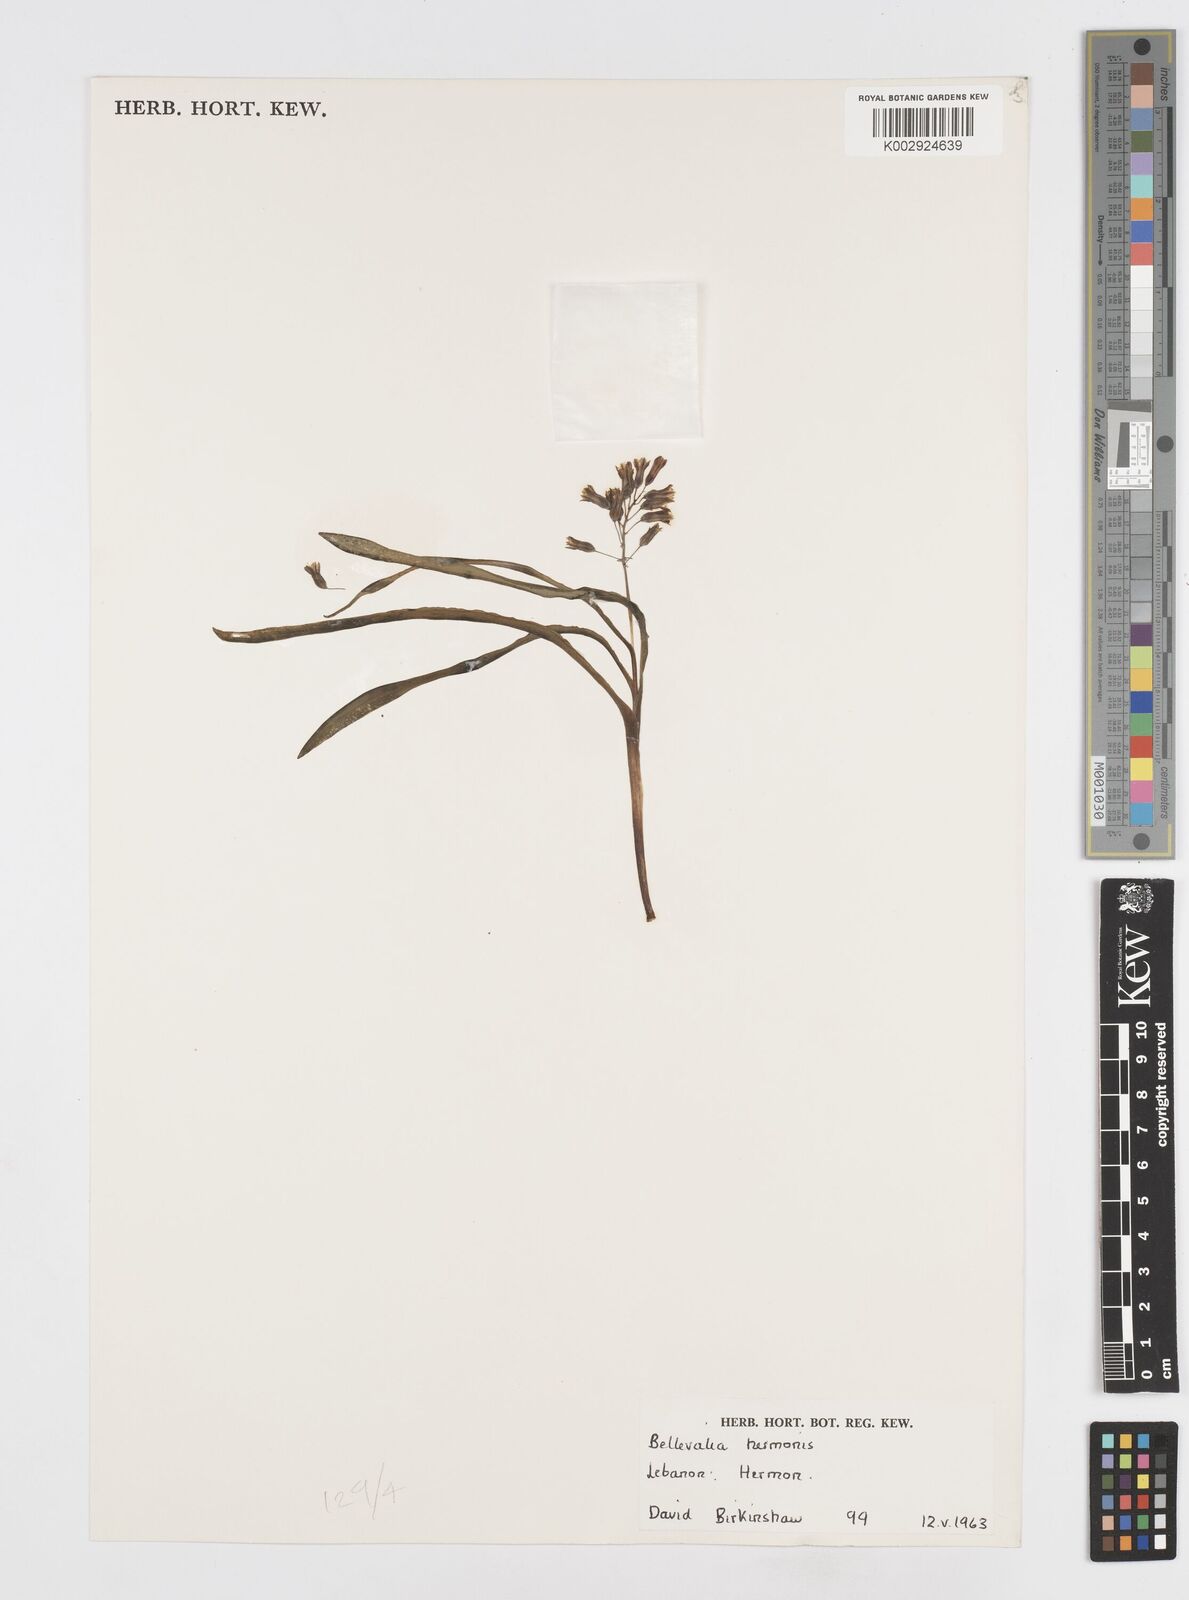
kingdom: Plantae
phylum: Tracheophyta
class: Liliopsida
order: Asparagales
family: Asparagaceae
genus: Bellevalia
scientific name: Bellevalia hermonis
